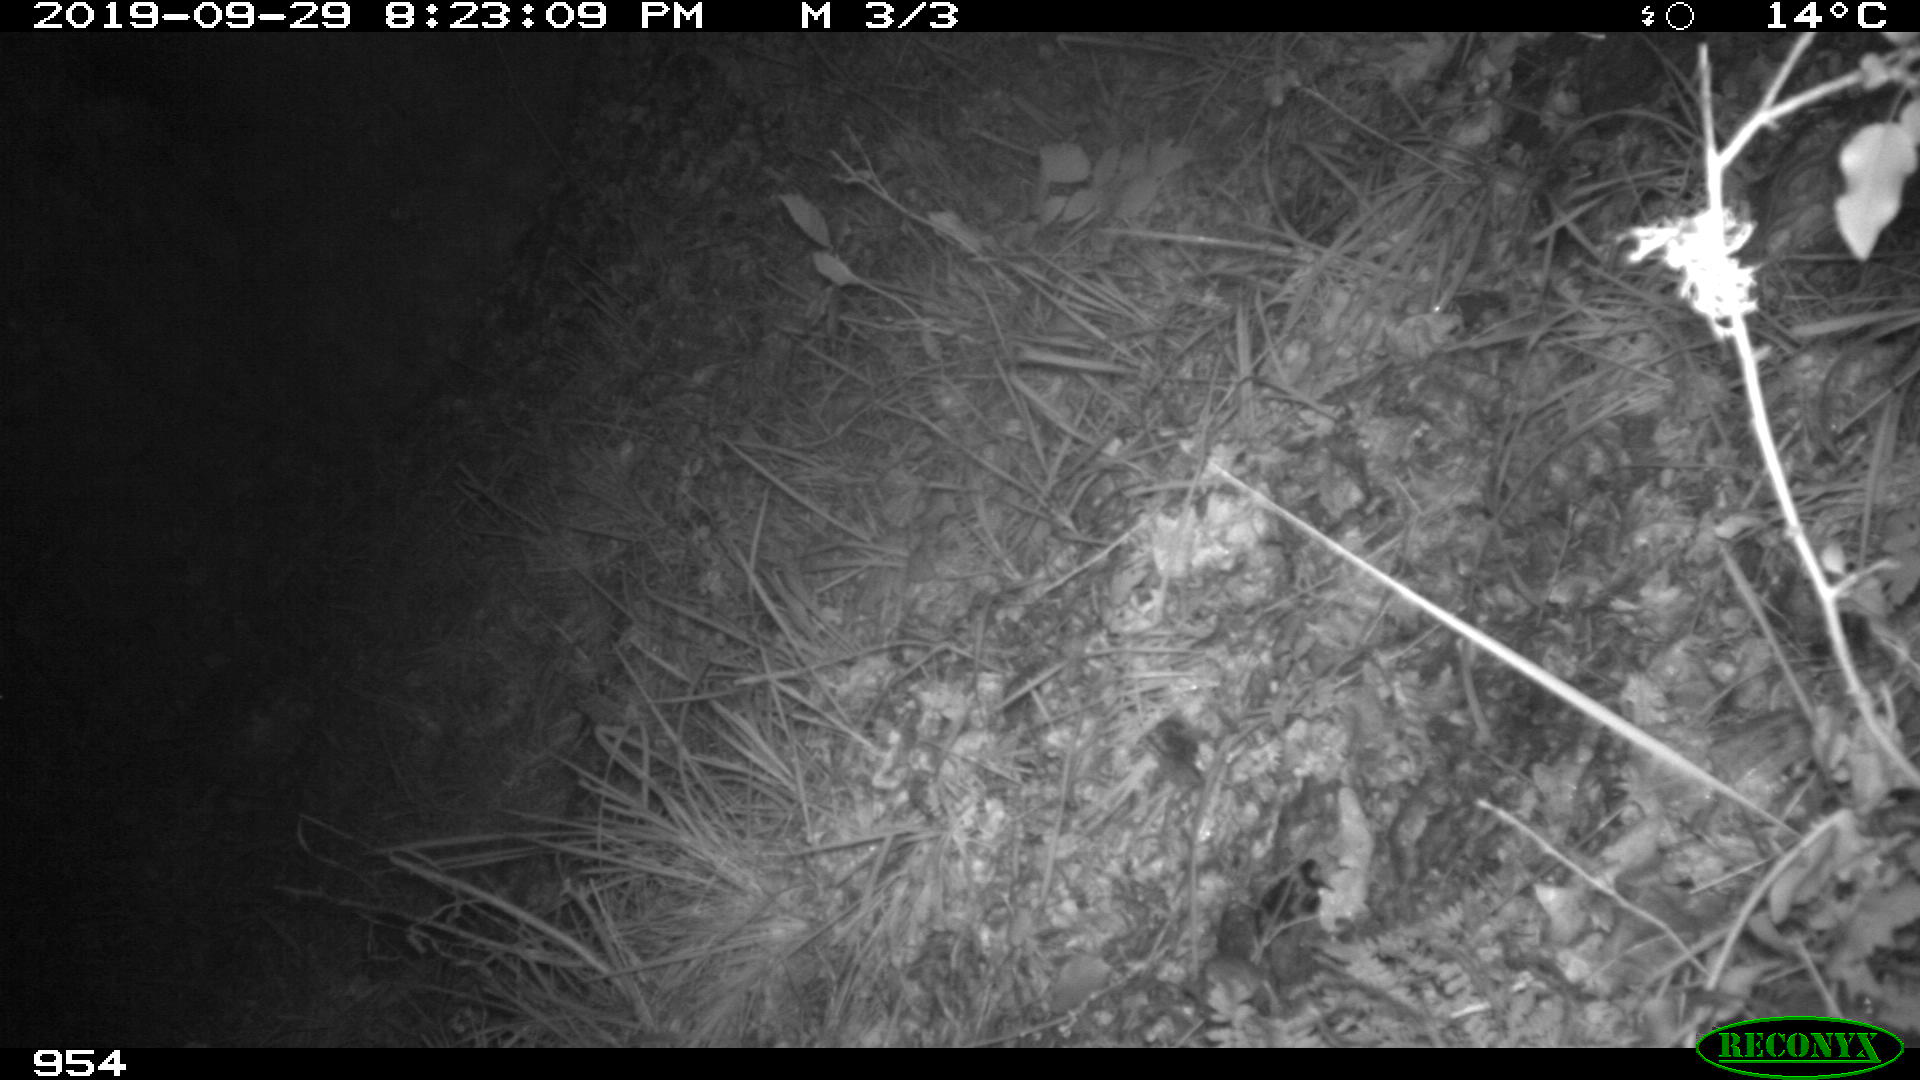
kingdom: Animalia
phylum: Chordata
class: Mammalia
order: Rodentia
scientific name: Rodentia
